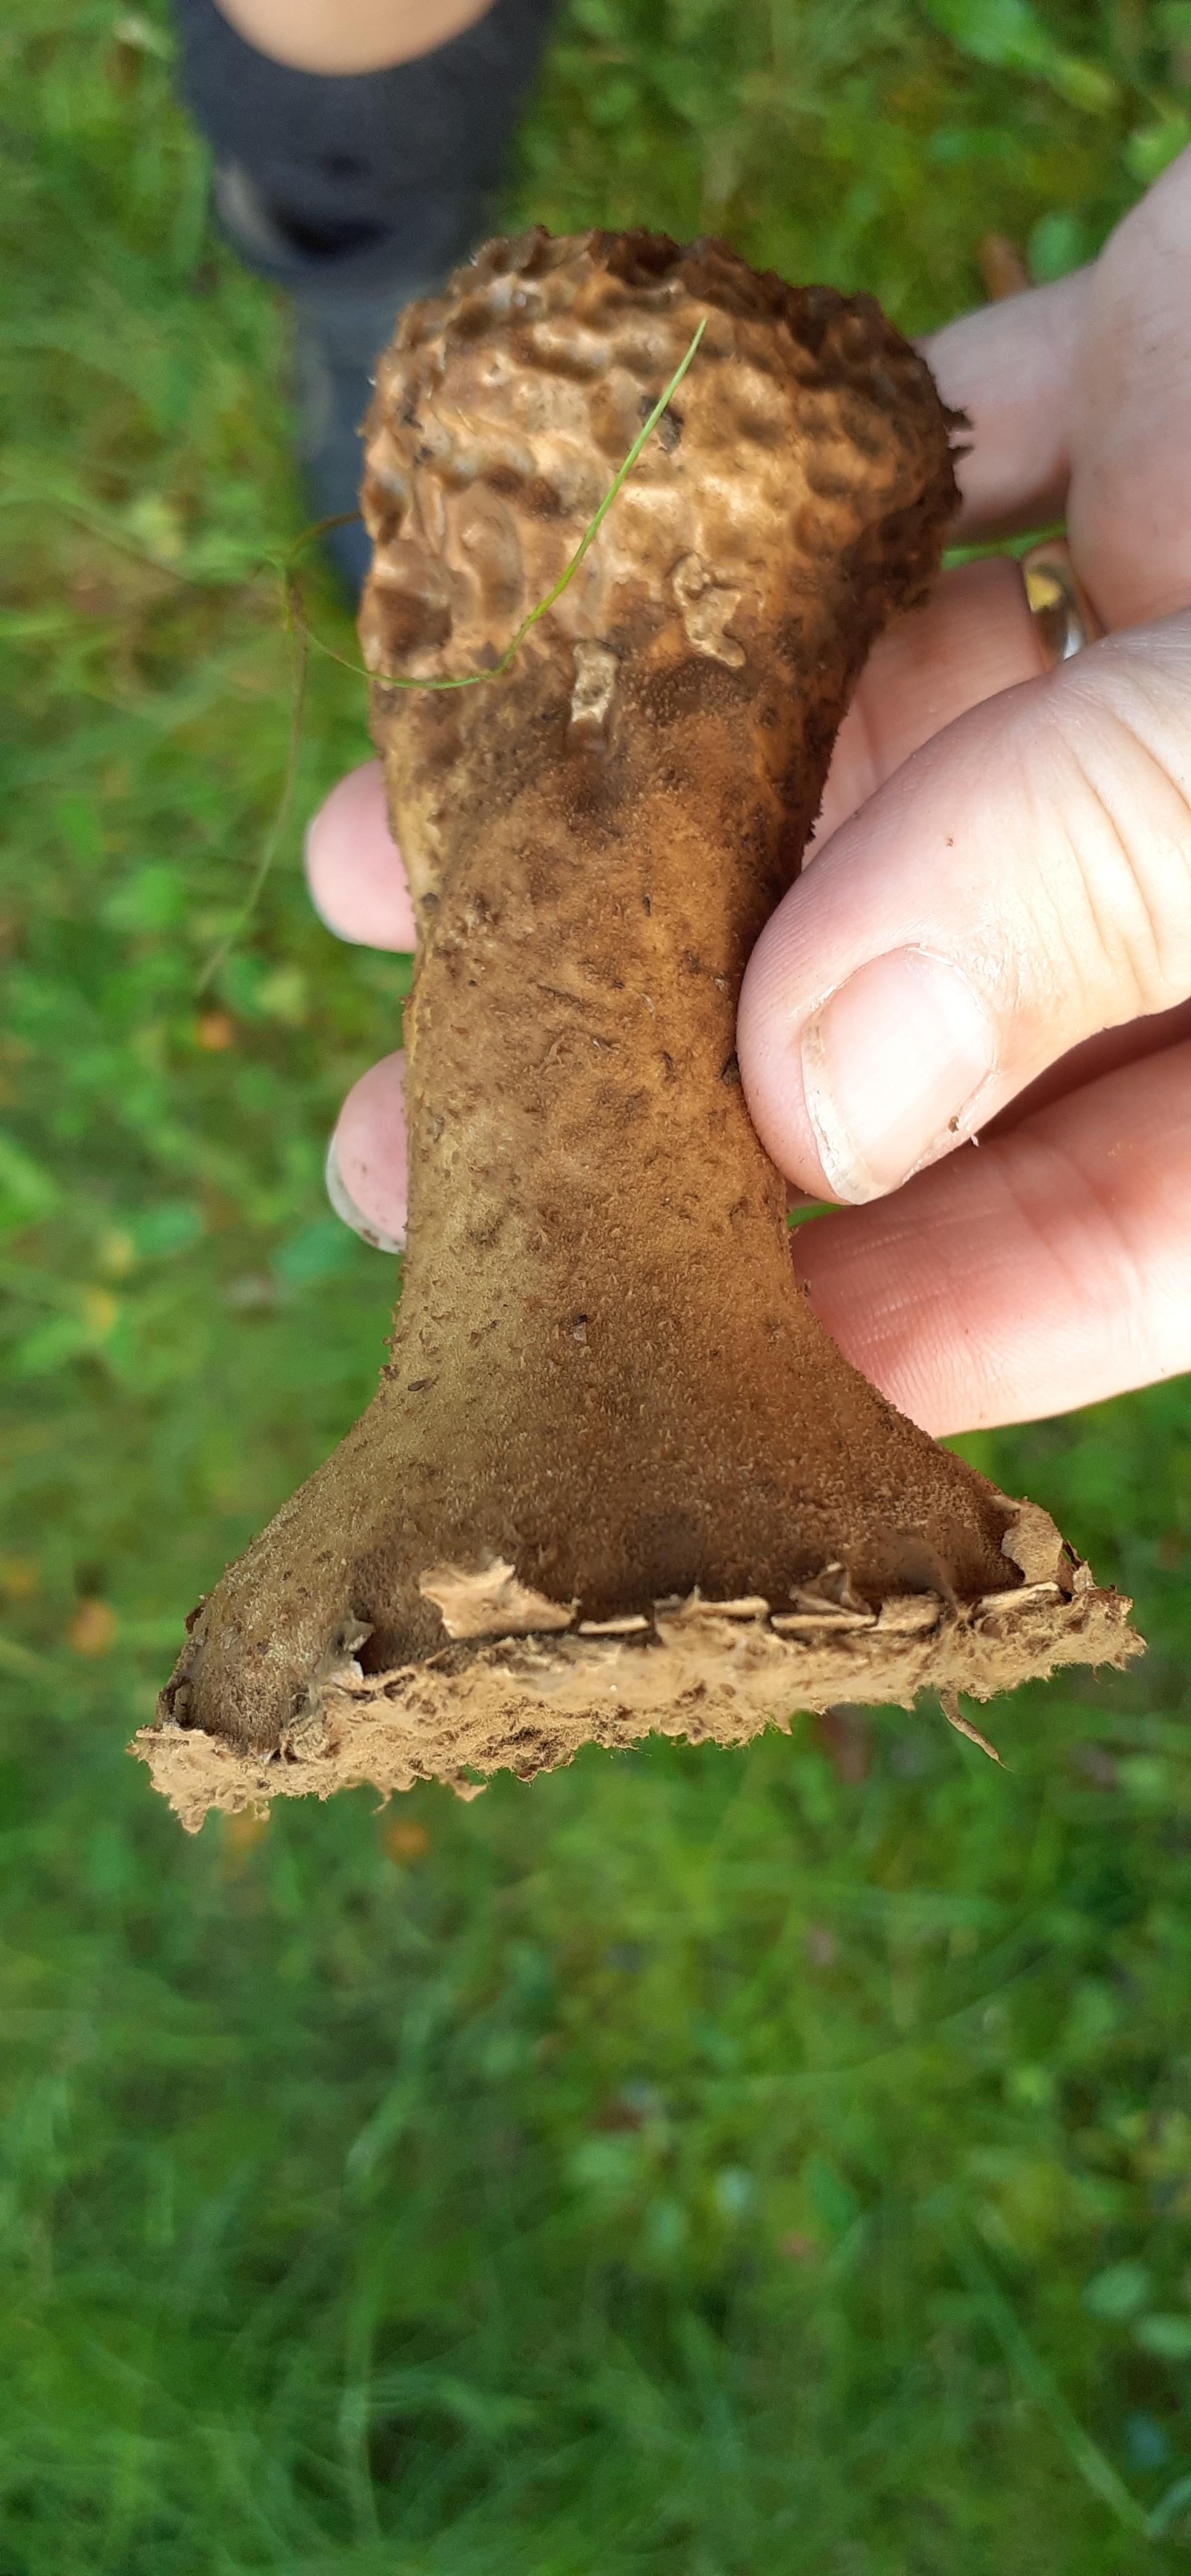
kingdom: Fungi
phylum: Basidiomycota
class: Agaricomycetes
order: Agaricales
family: Lycoperdaceae
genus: Lycoperdon
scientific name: Lycoperdon excipuliforme
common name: højstokket støvbold
